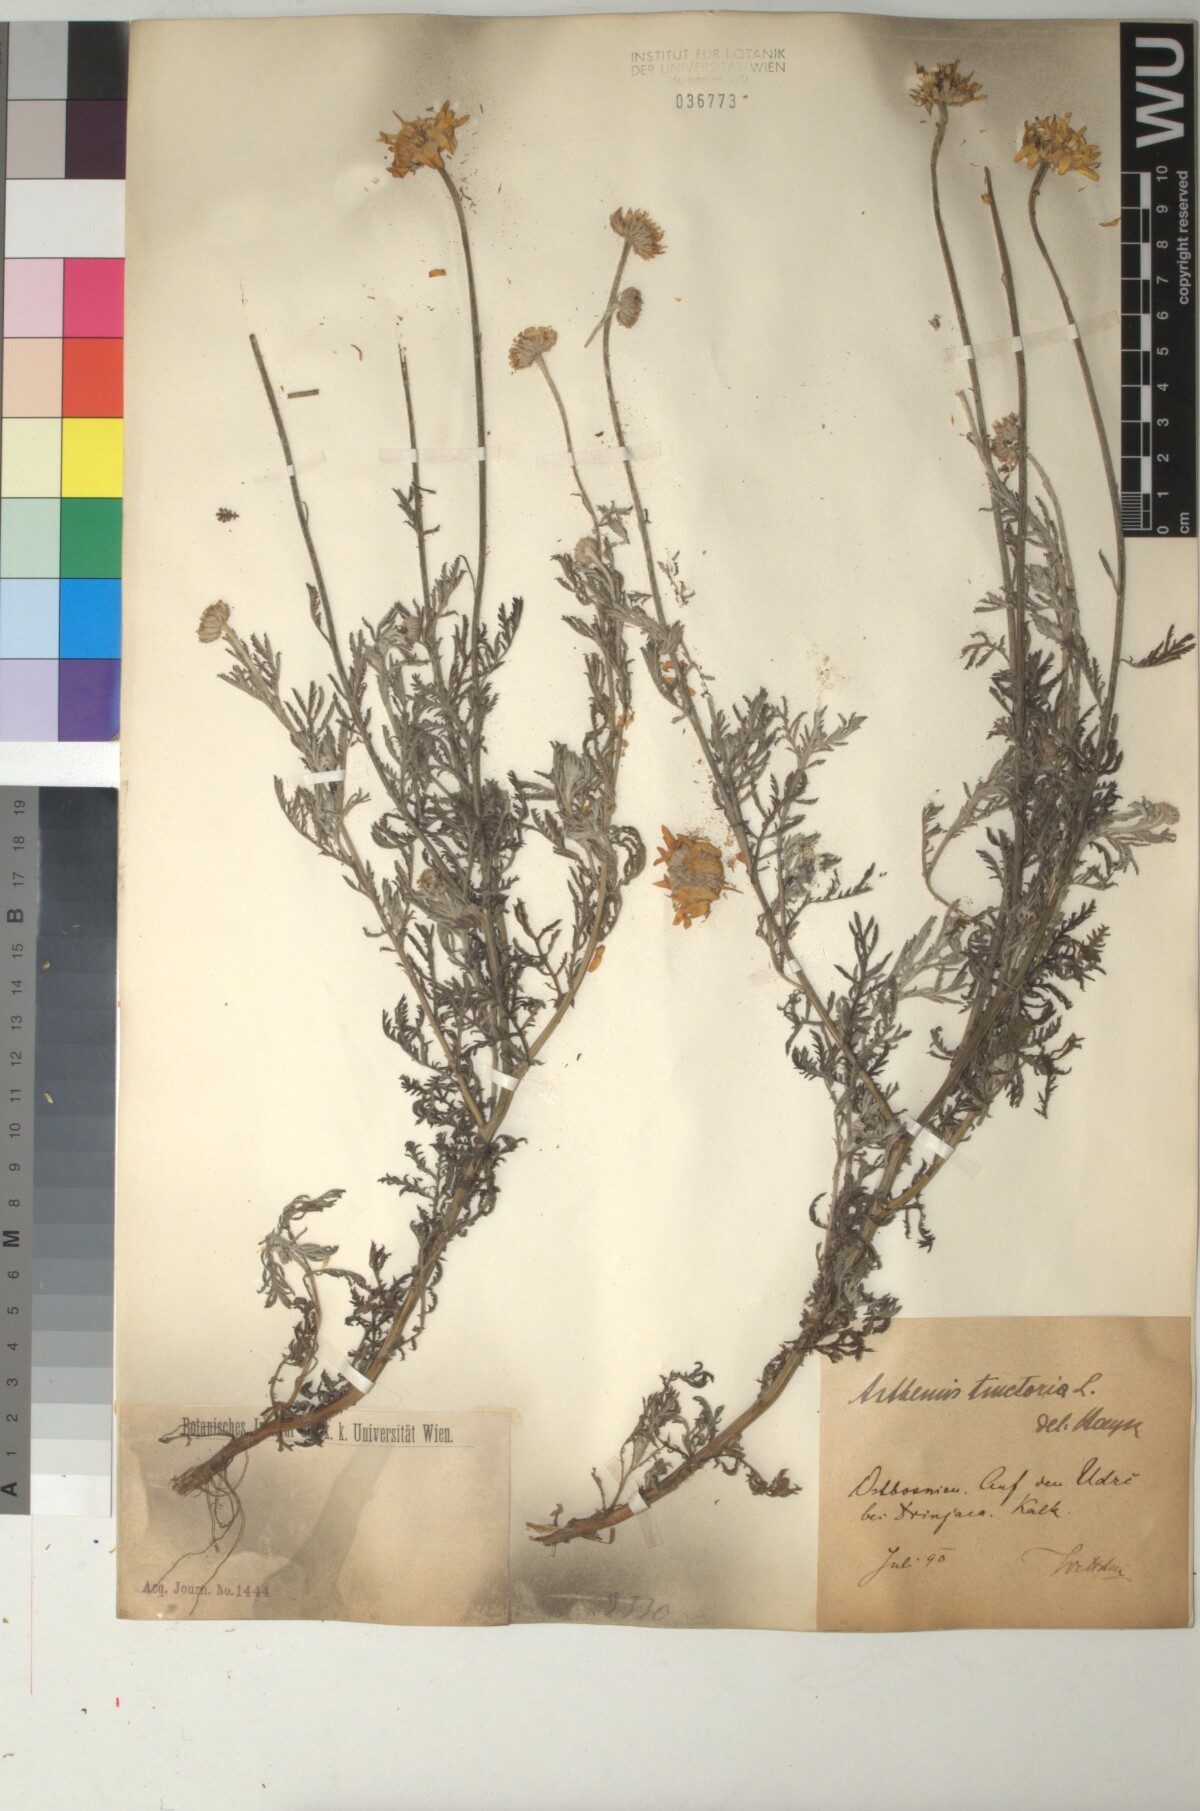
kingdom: Plantae
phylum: Tracheophyta
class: Magnoliopsida
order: Asterales
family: Asteraceae
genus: Cota
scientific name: Cota tinctoria
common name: Golden chamomile
